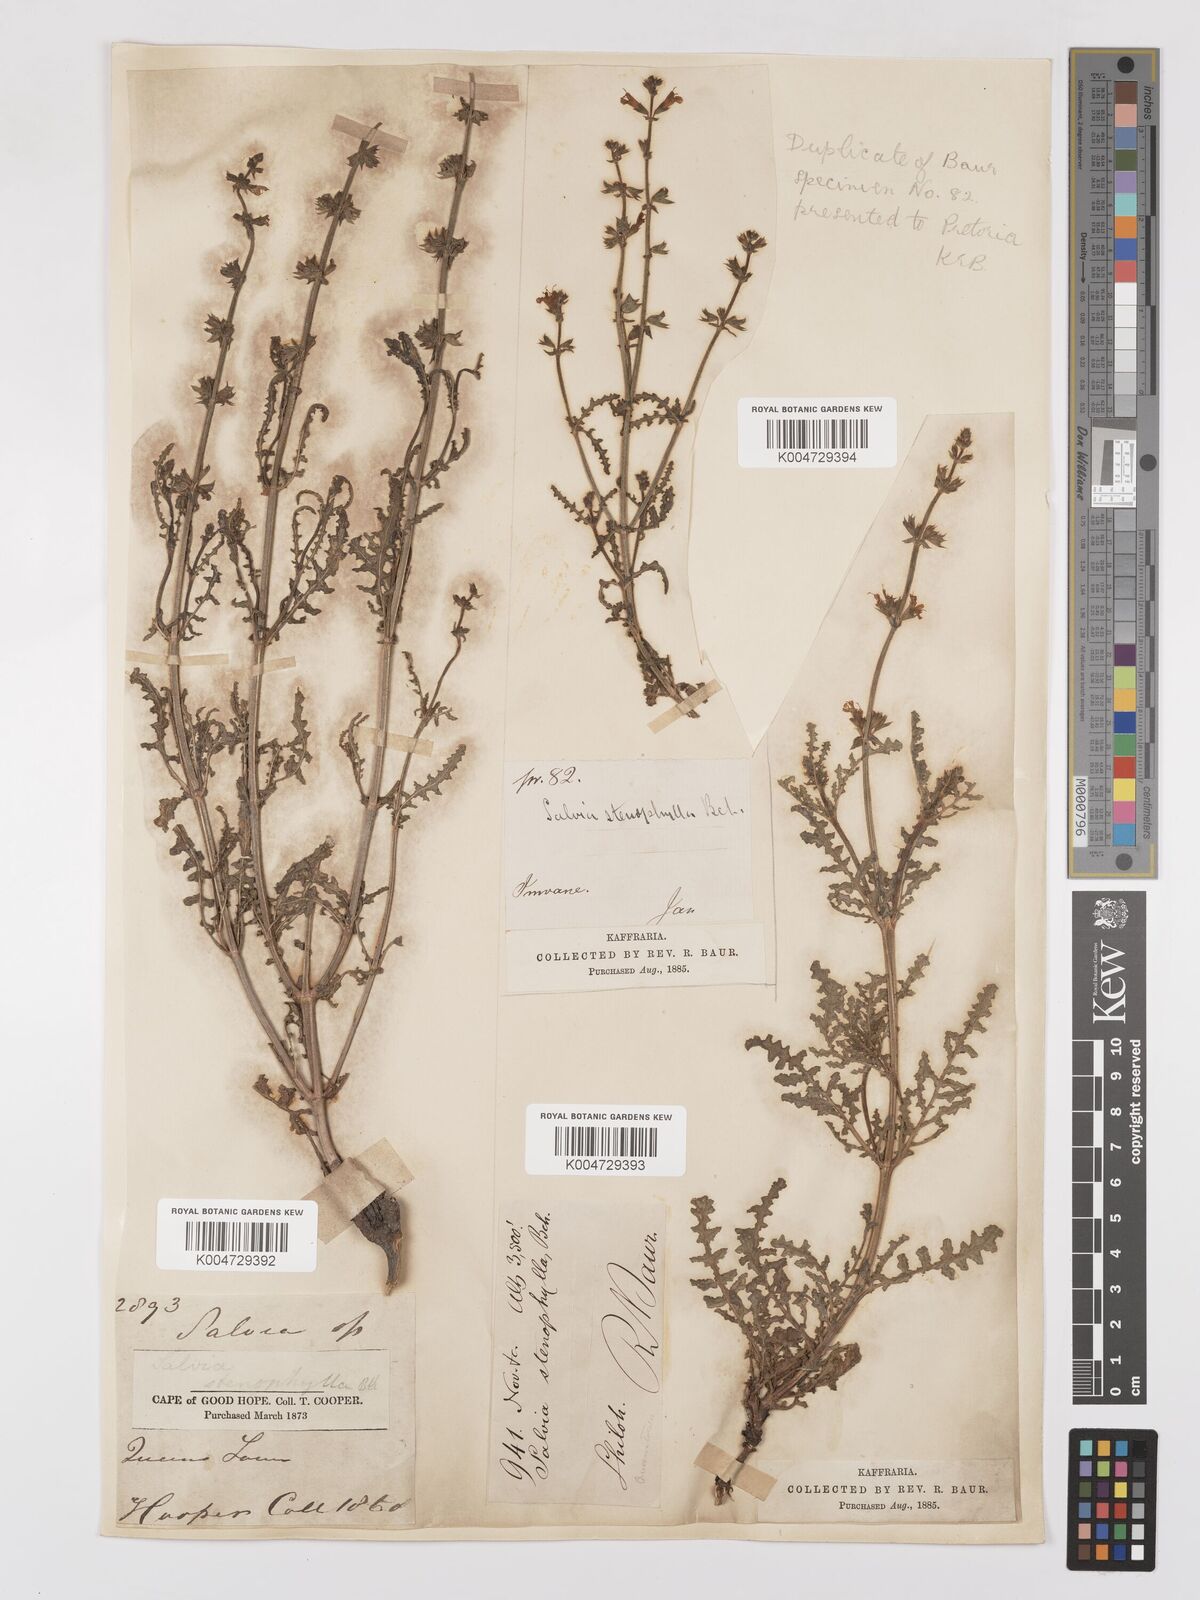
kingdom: Plantae
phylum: Tracheophyta
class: Magnoliopsida
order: Lamiales
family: Lamiaceae
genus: Salvia
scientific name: Salvia stenophylla
